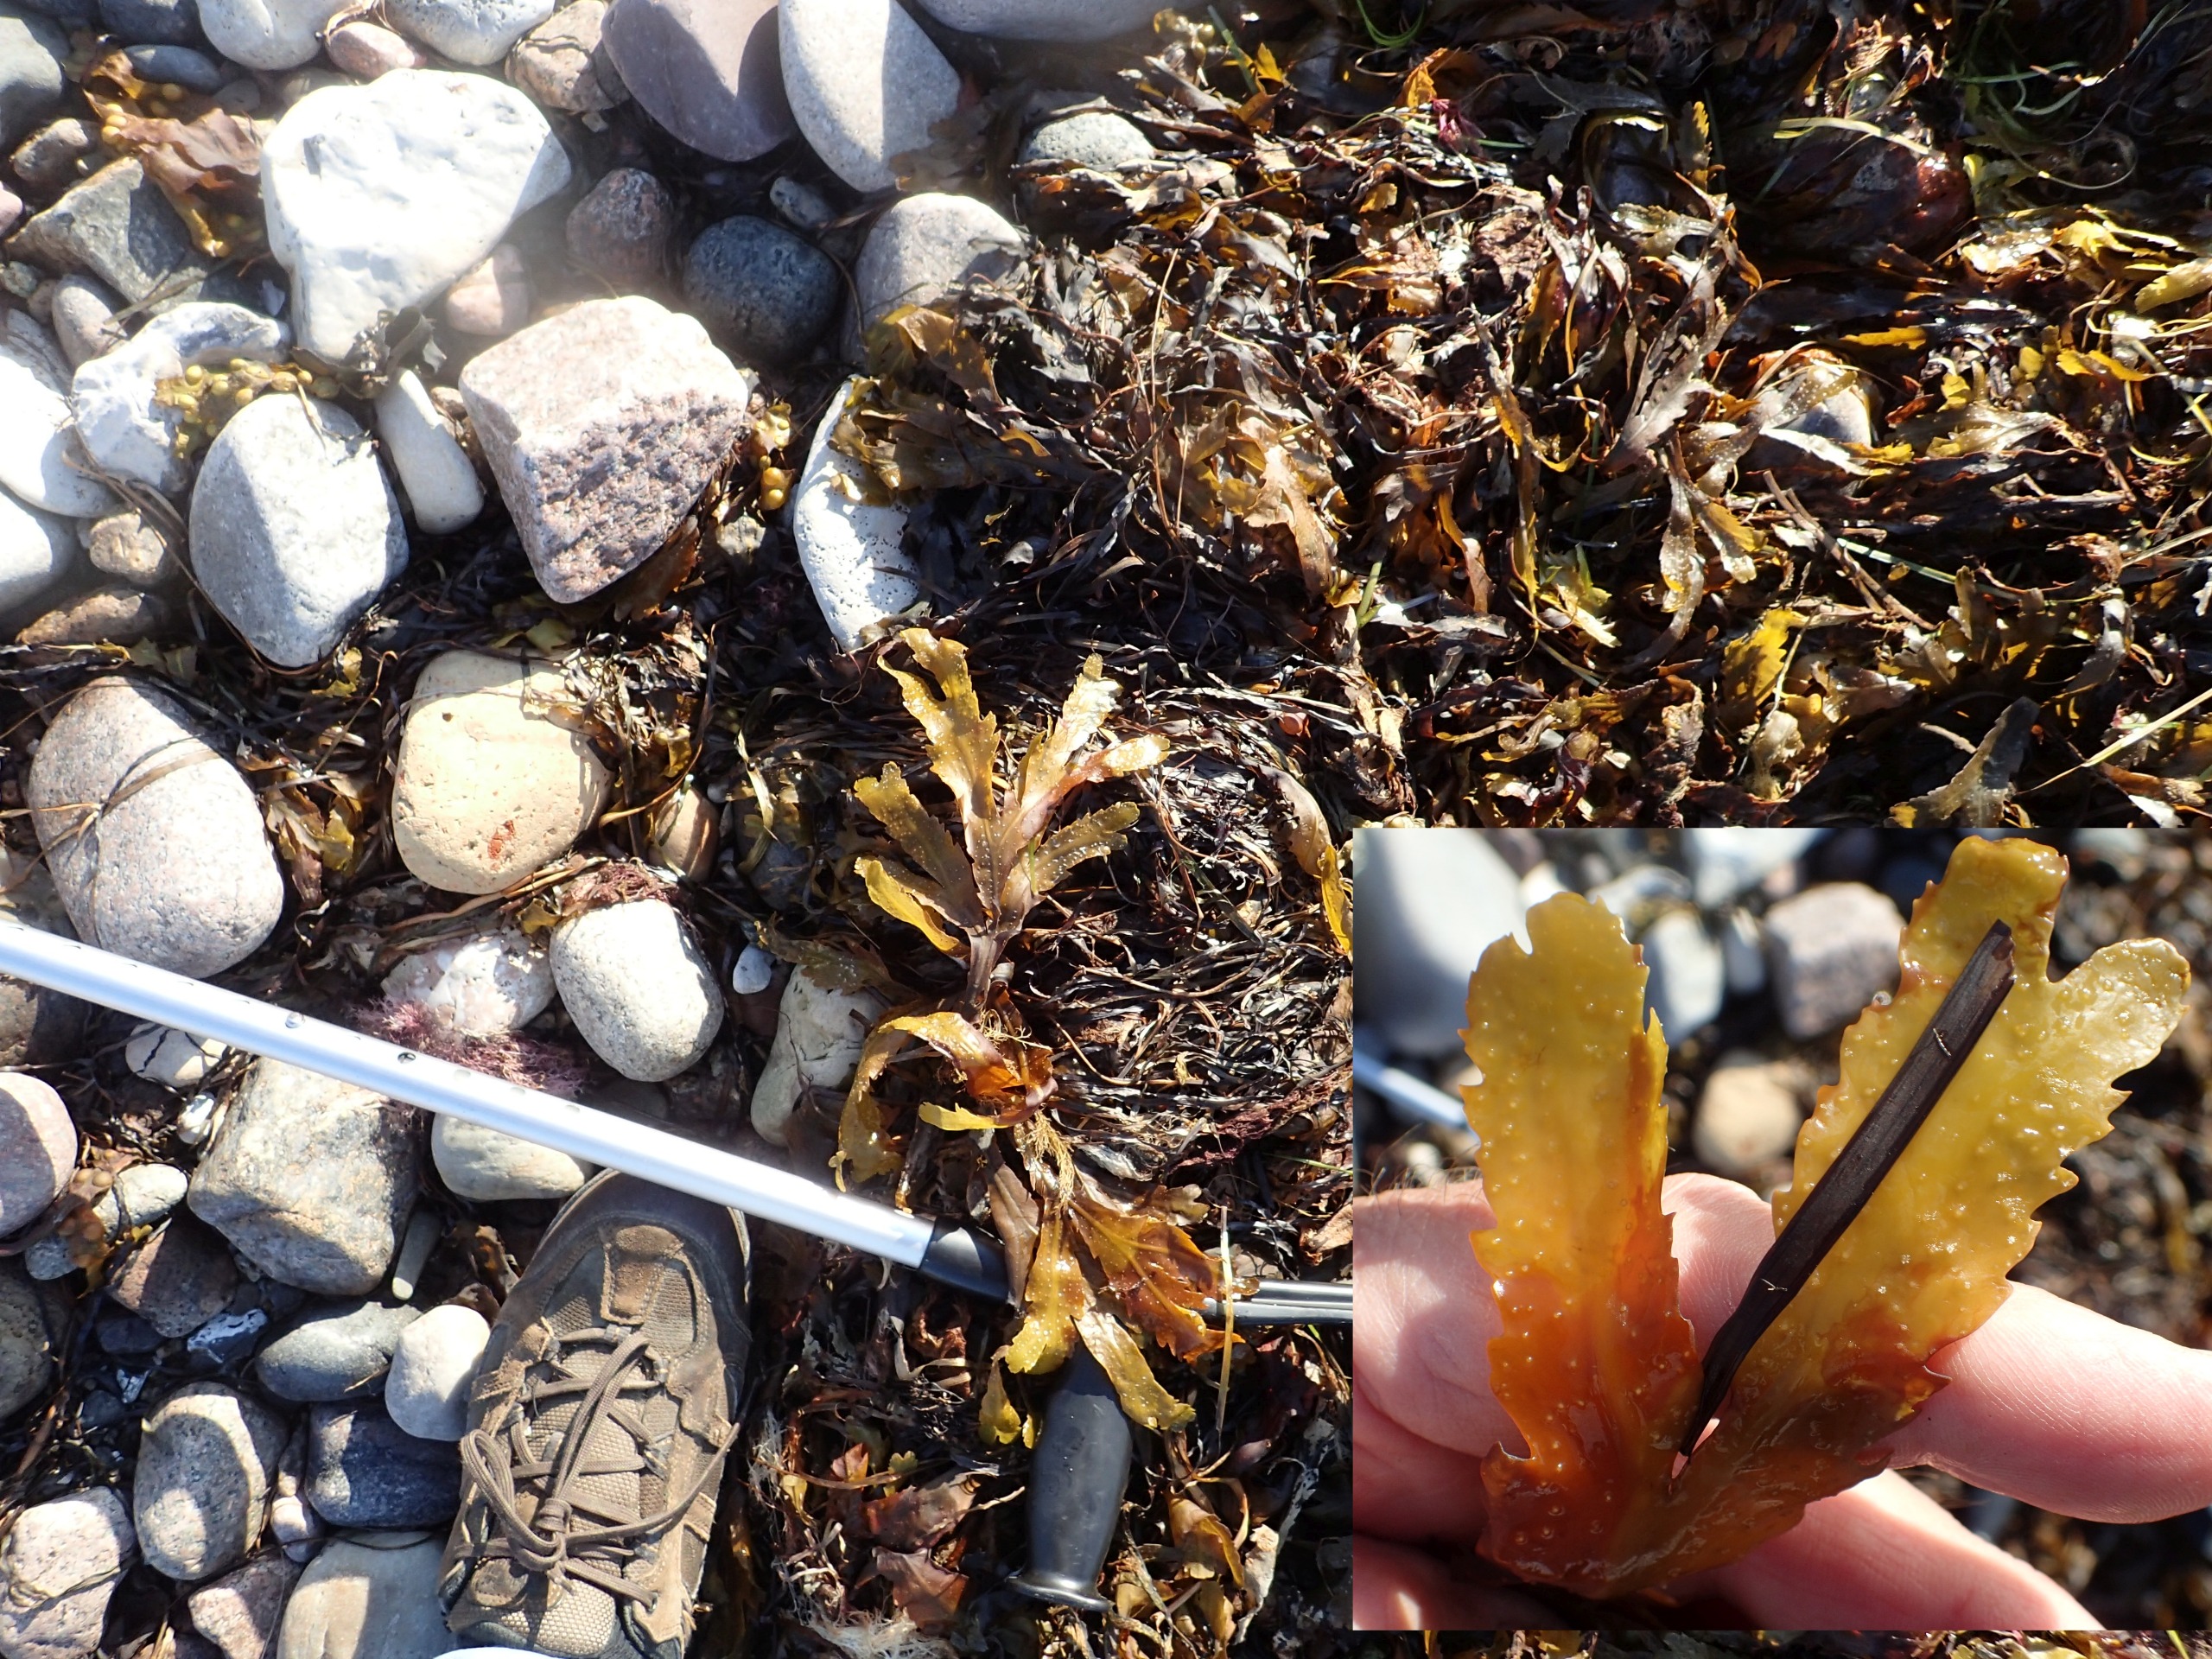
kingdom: Chromista
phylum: Ochrophyta
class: Phaeophyceae
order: Fucales
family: Fucaceae
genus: Fucus
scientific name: Fucus serratus
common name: Savtang
